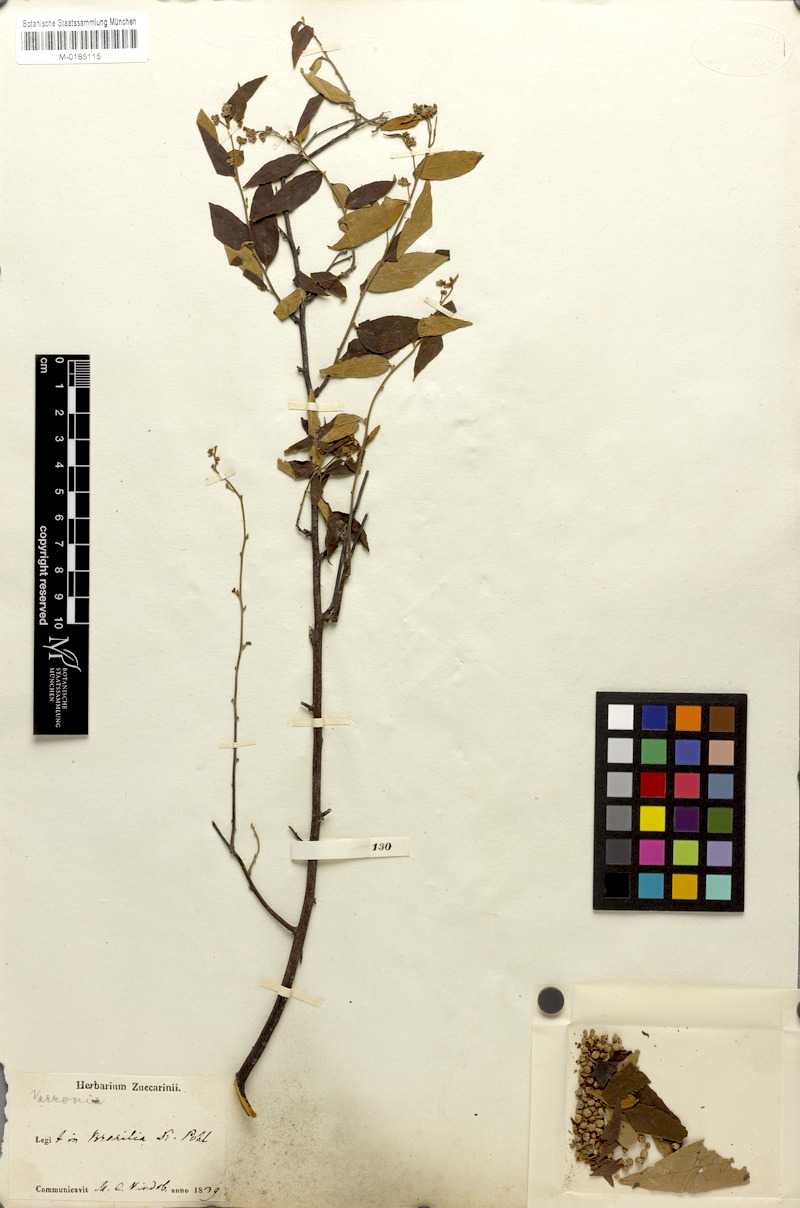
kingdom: Plantae
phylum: Tracheophyta
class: Magnoliopsida
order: Boraginales
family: Cordiaceae
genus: Varronia
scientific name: Varronia polycephala
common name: Black-sage
